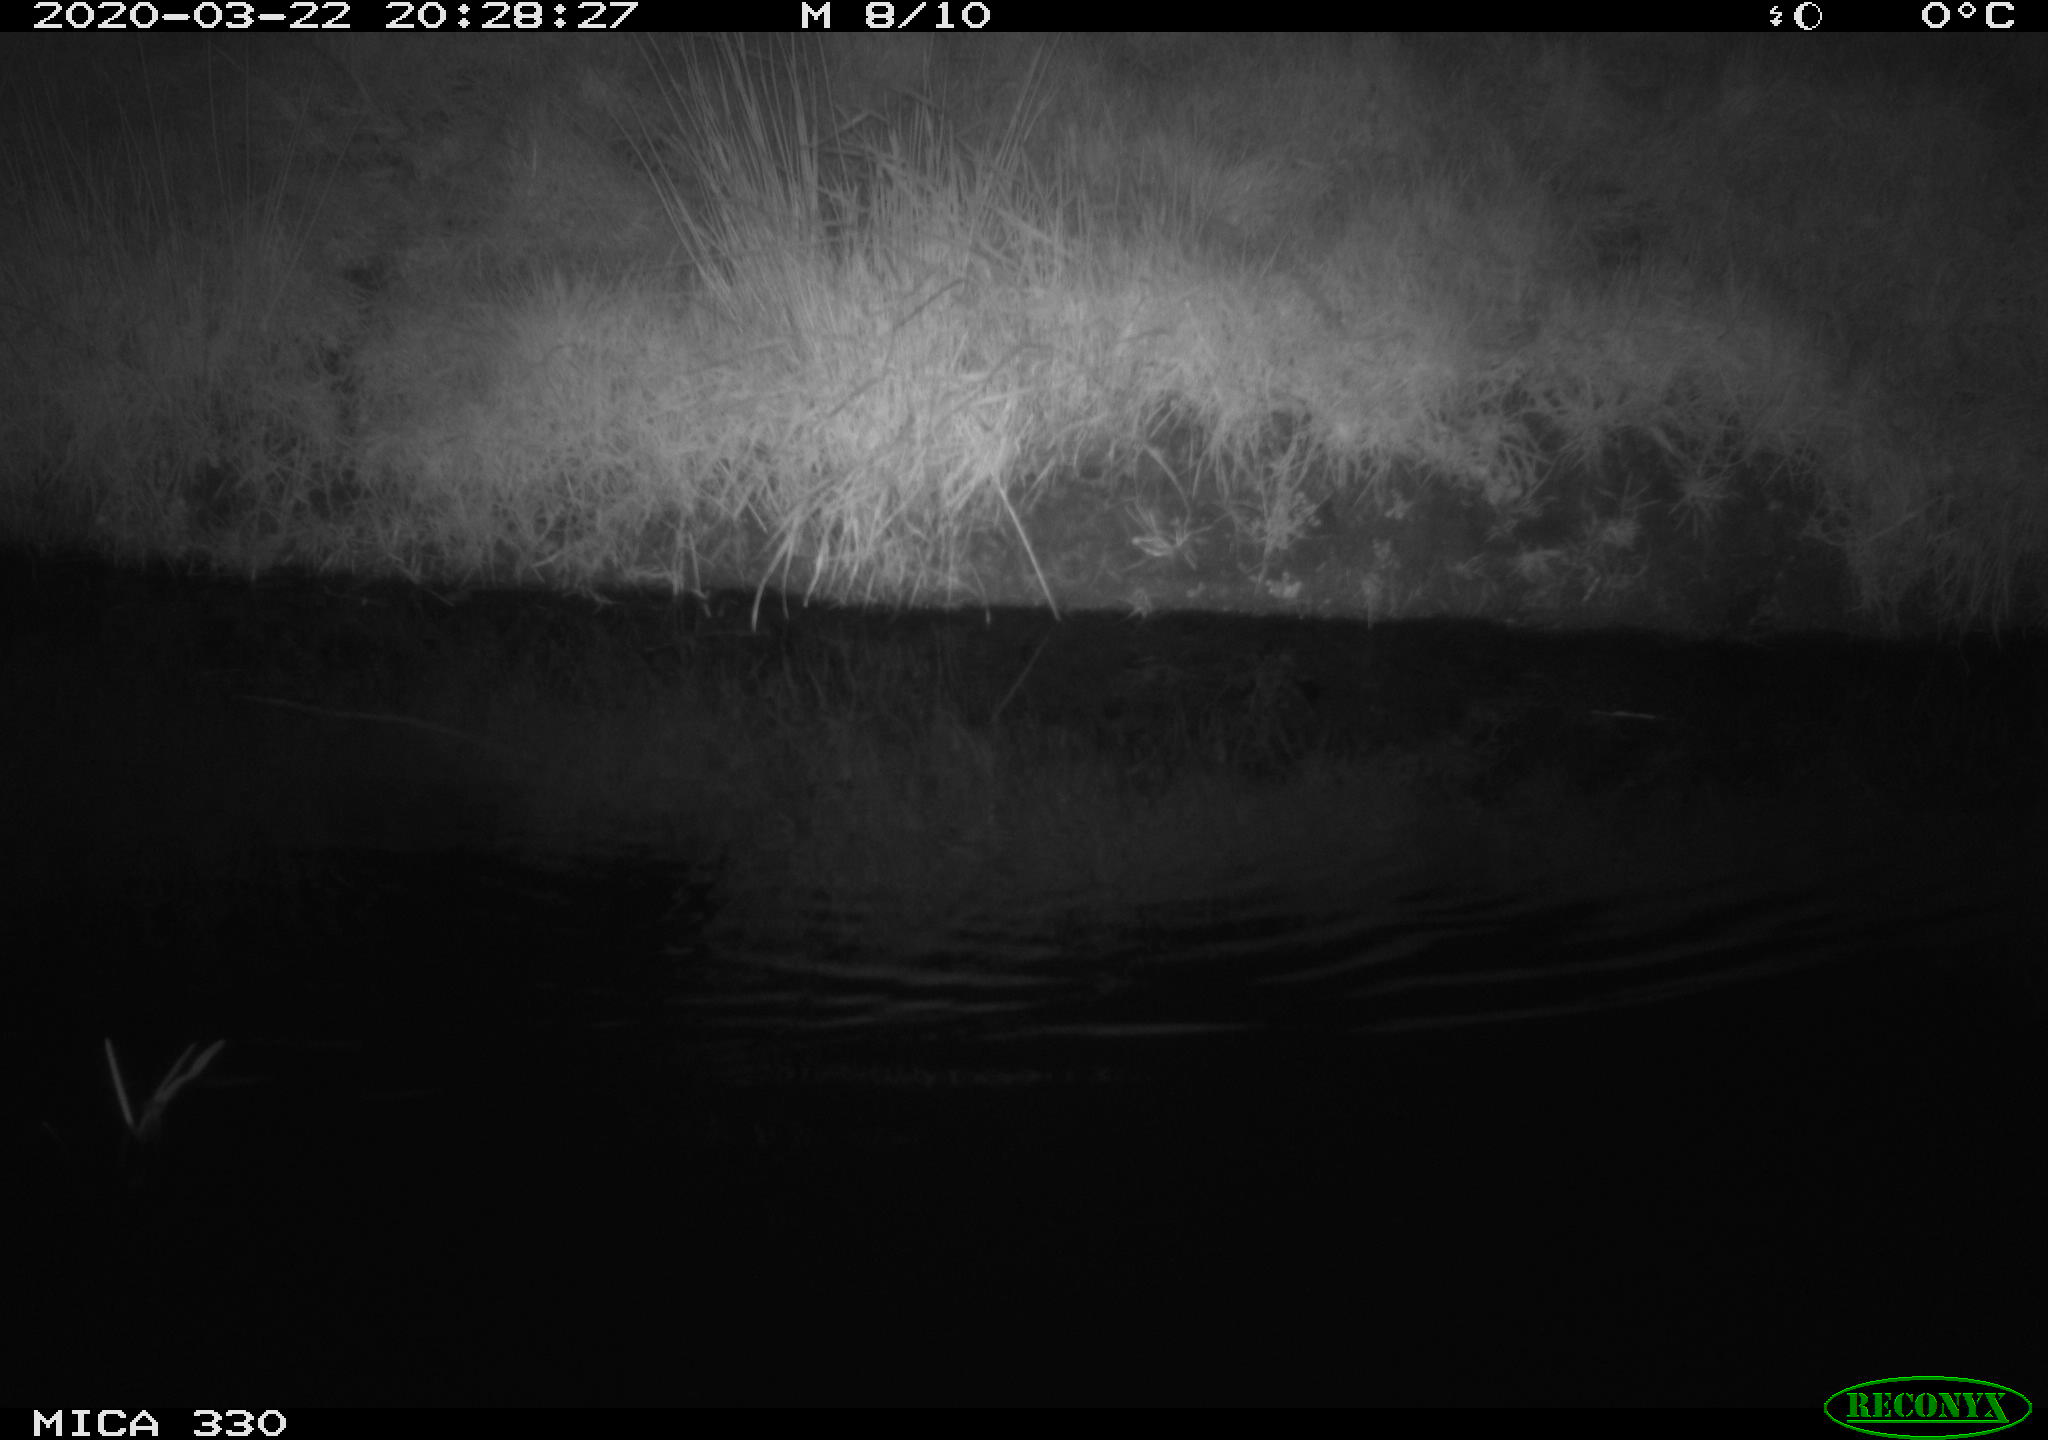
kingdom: Animalia
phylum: Chordata
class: Mammalia
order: Rodentia
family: Muridae
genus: Rattus
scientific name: Rattus norvegicus
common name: Brown rat
